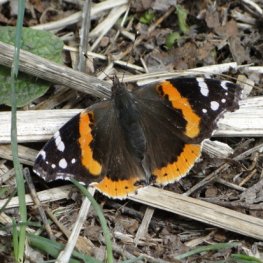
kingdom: Animalia
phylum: Arthropoda
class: Insecta
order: Lepidoptera
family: Nymphalidae
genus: Vanessa
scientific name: Vanessa atalanta
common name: Red Admiral
